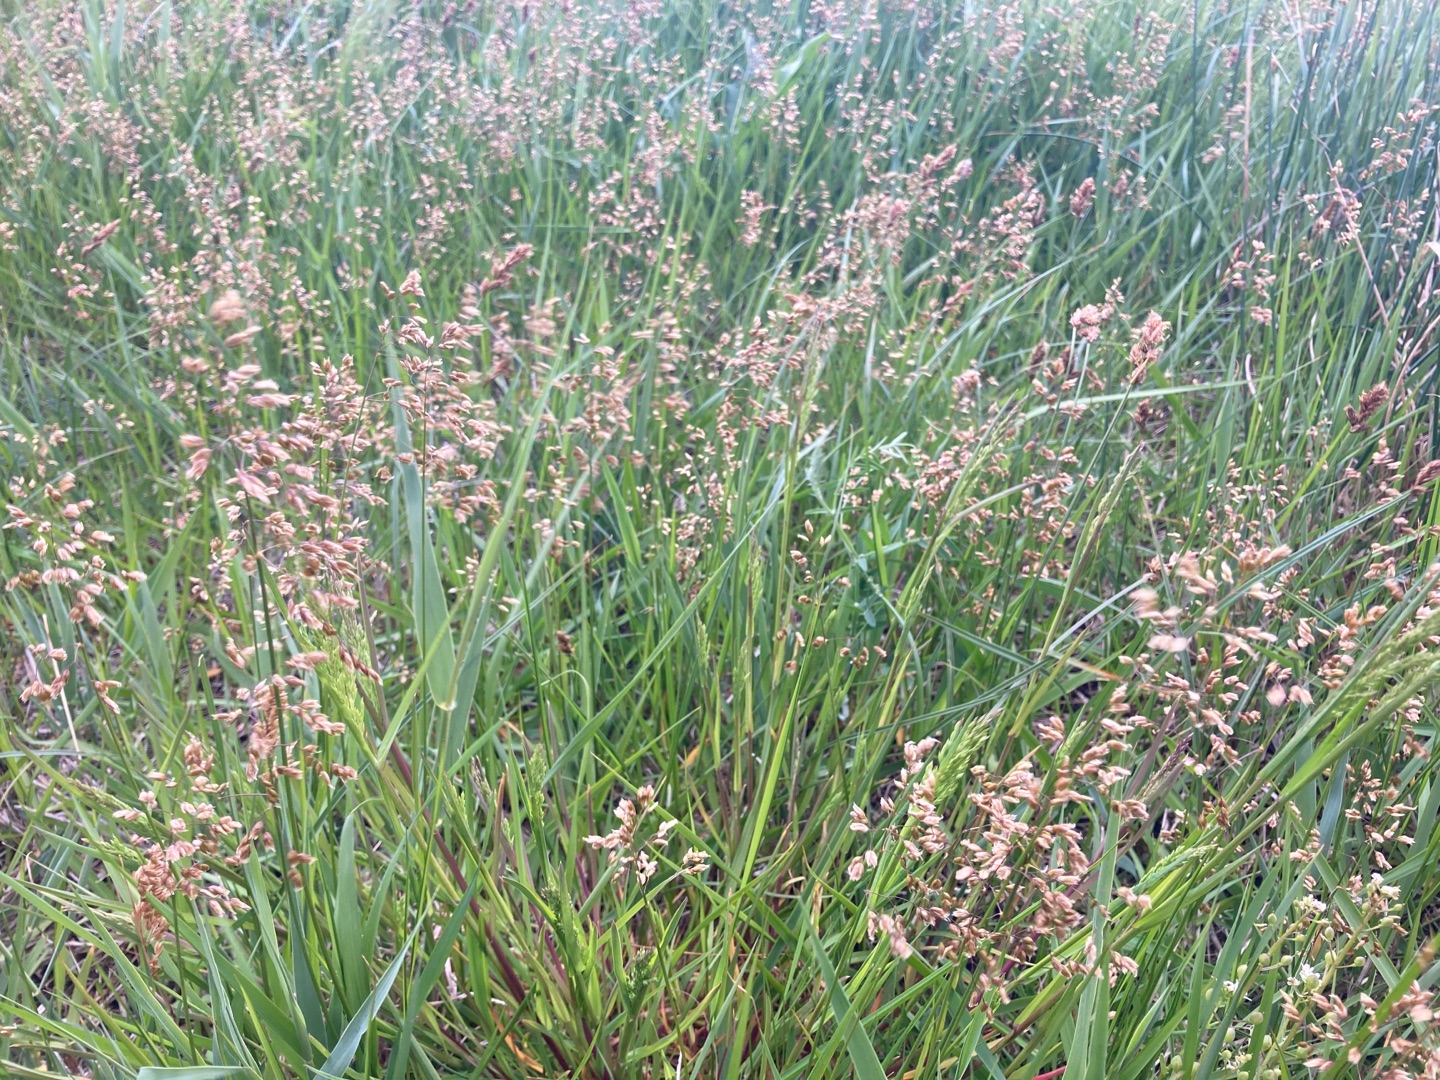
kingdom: Plantae
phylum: Tracheophyta
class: Liliopsida
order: Poales
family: Poaceae
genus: Anthoxanthum
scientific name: Anthoxanthum nitens
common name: Festgræs
